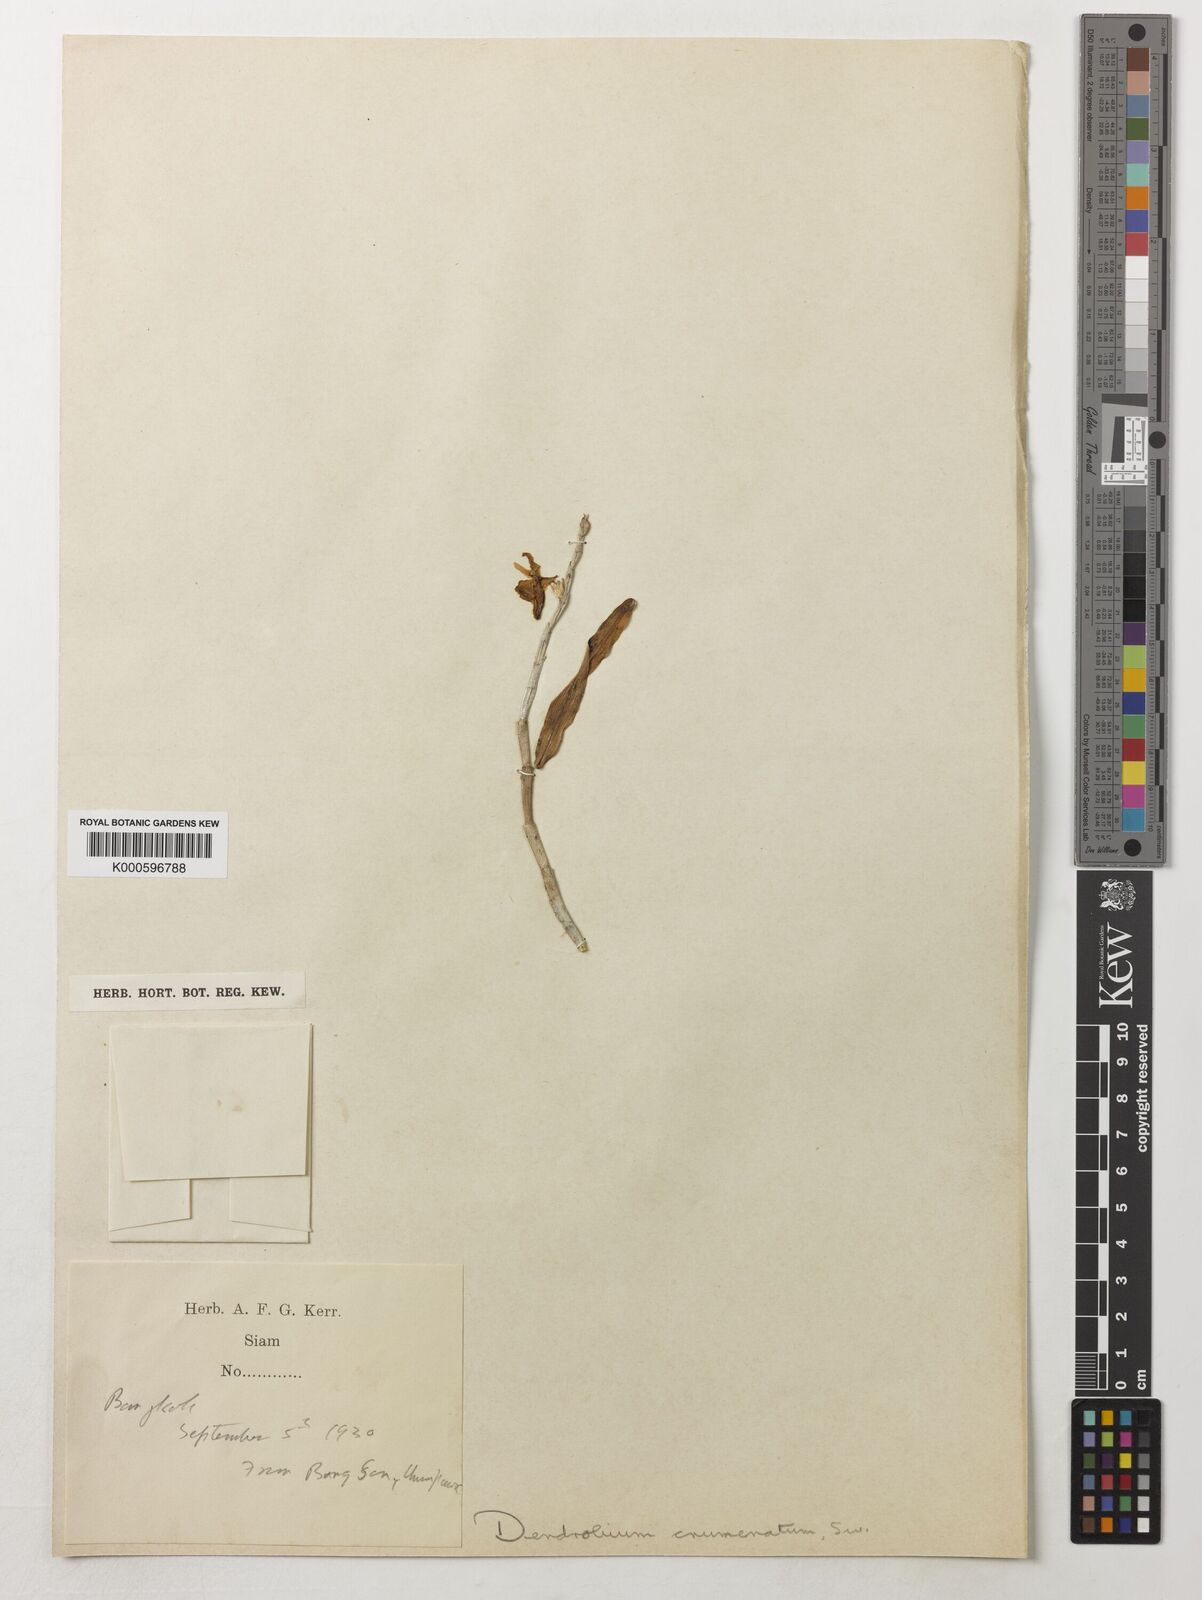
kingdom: Plantae
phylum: Tracheophyta
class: Liliopsida
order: Asparagales
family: Orchidaceae
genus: Dendrobium
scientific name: Dendrobium crumenatum
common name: Orchid
